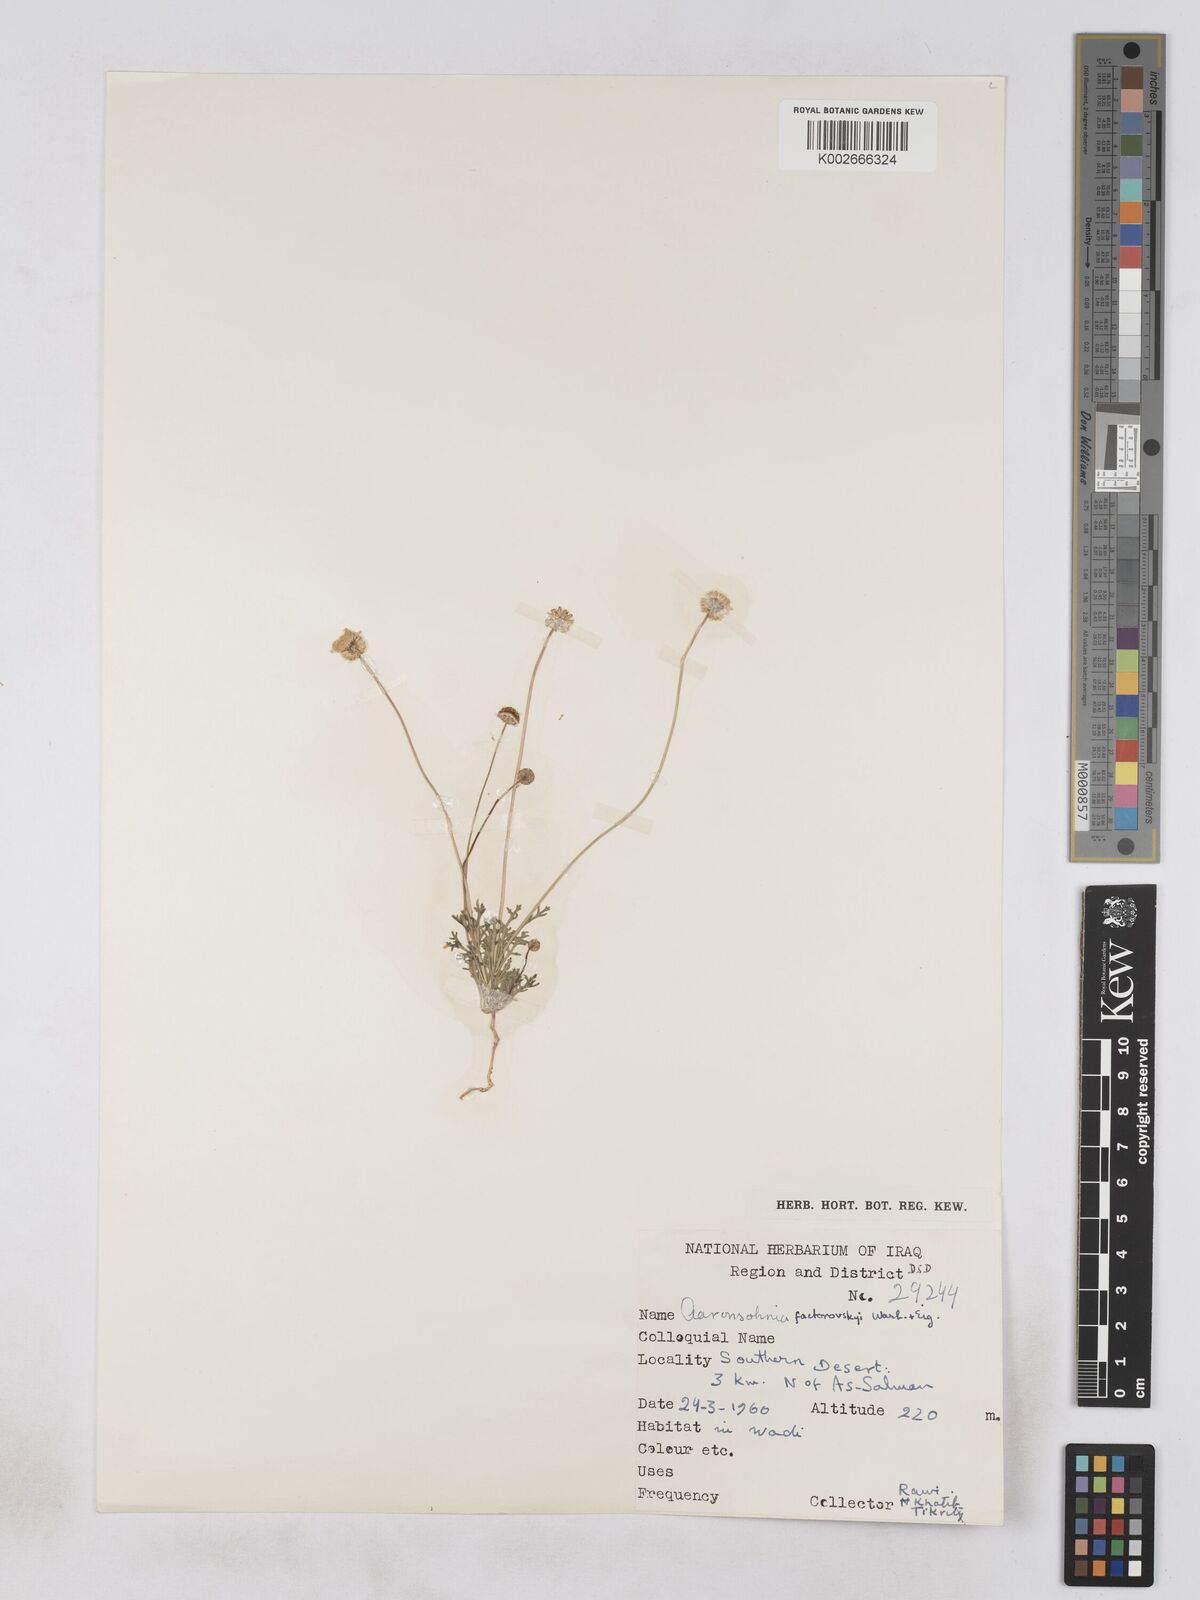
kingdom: Plantae
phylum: Tracheophyta
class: Magnoliopsida
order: Asterales
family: Asteraceae
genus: Otoglyphis
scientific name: Otoglyphis factorovskyi
